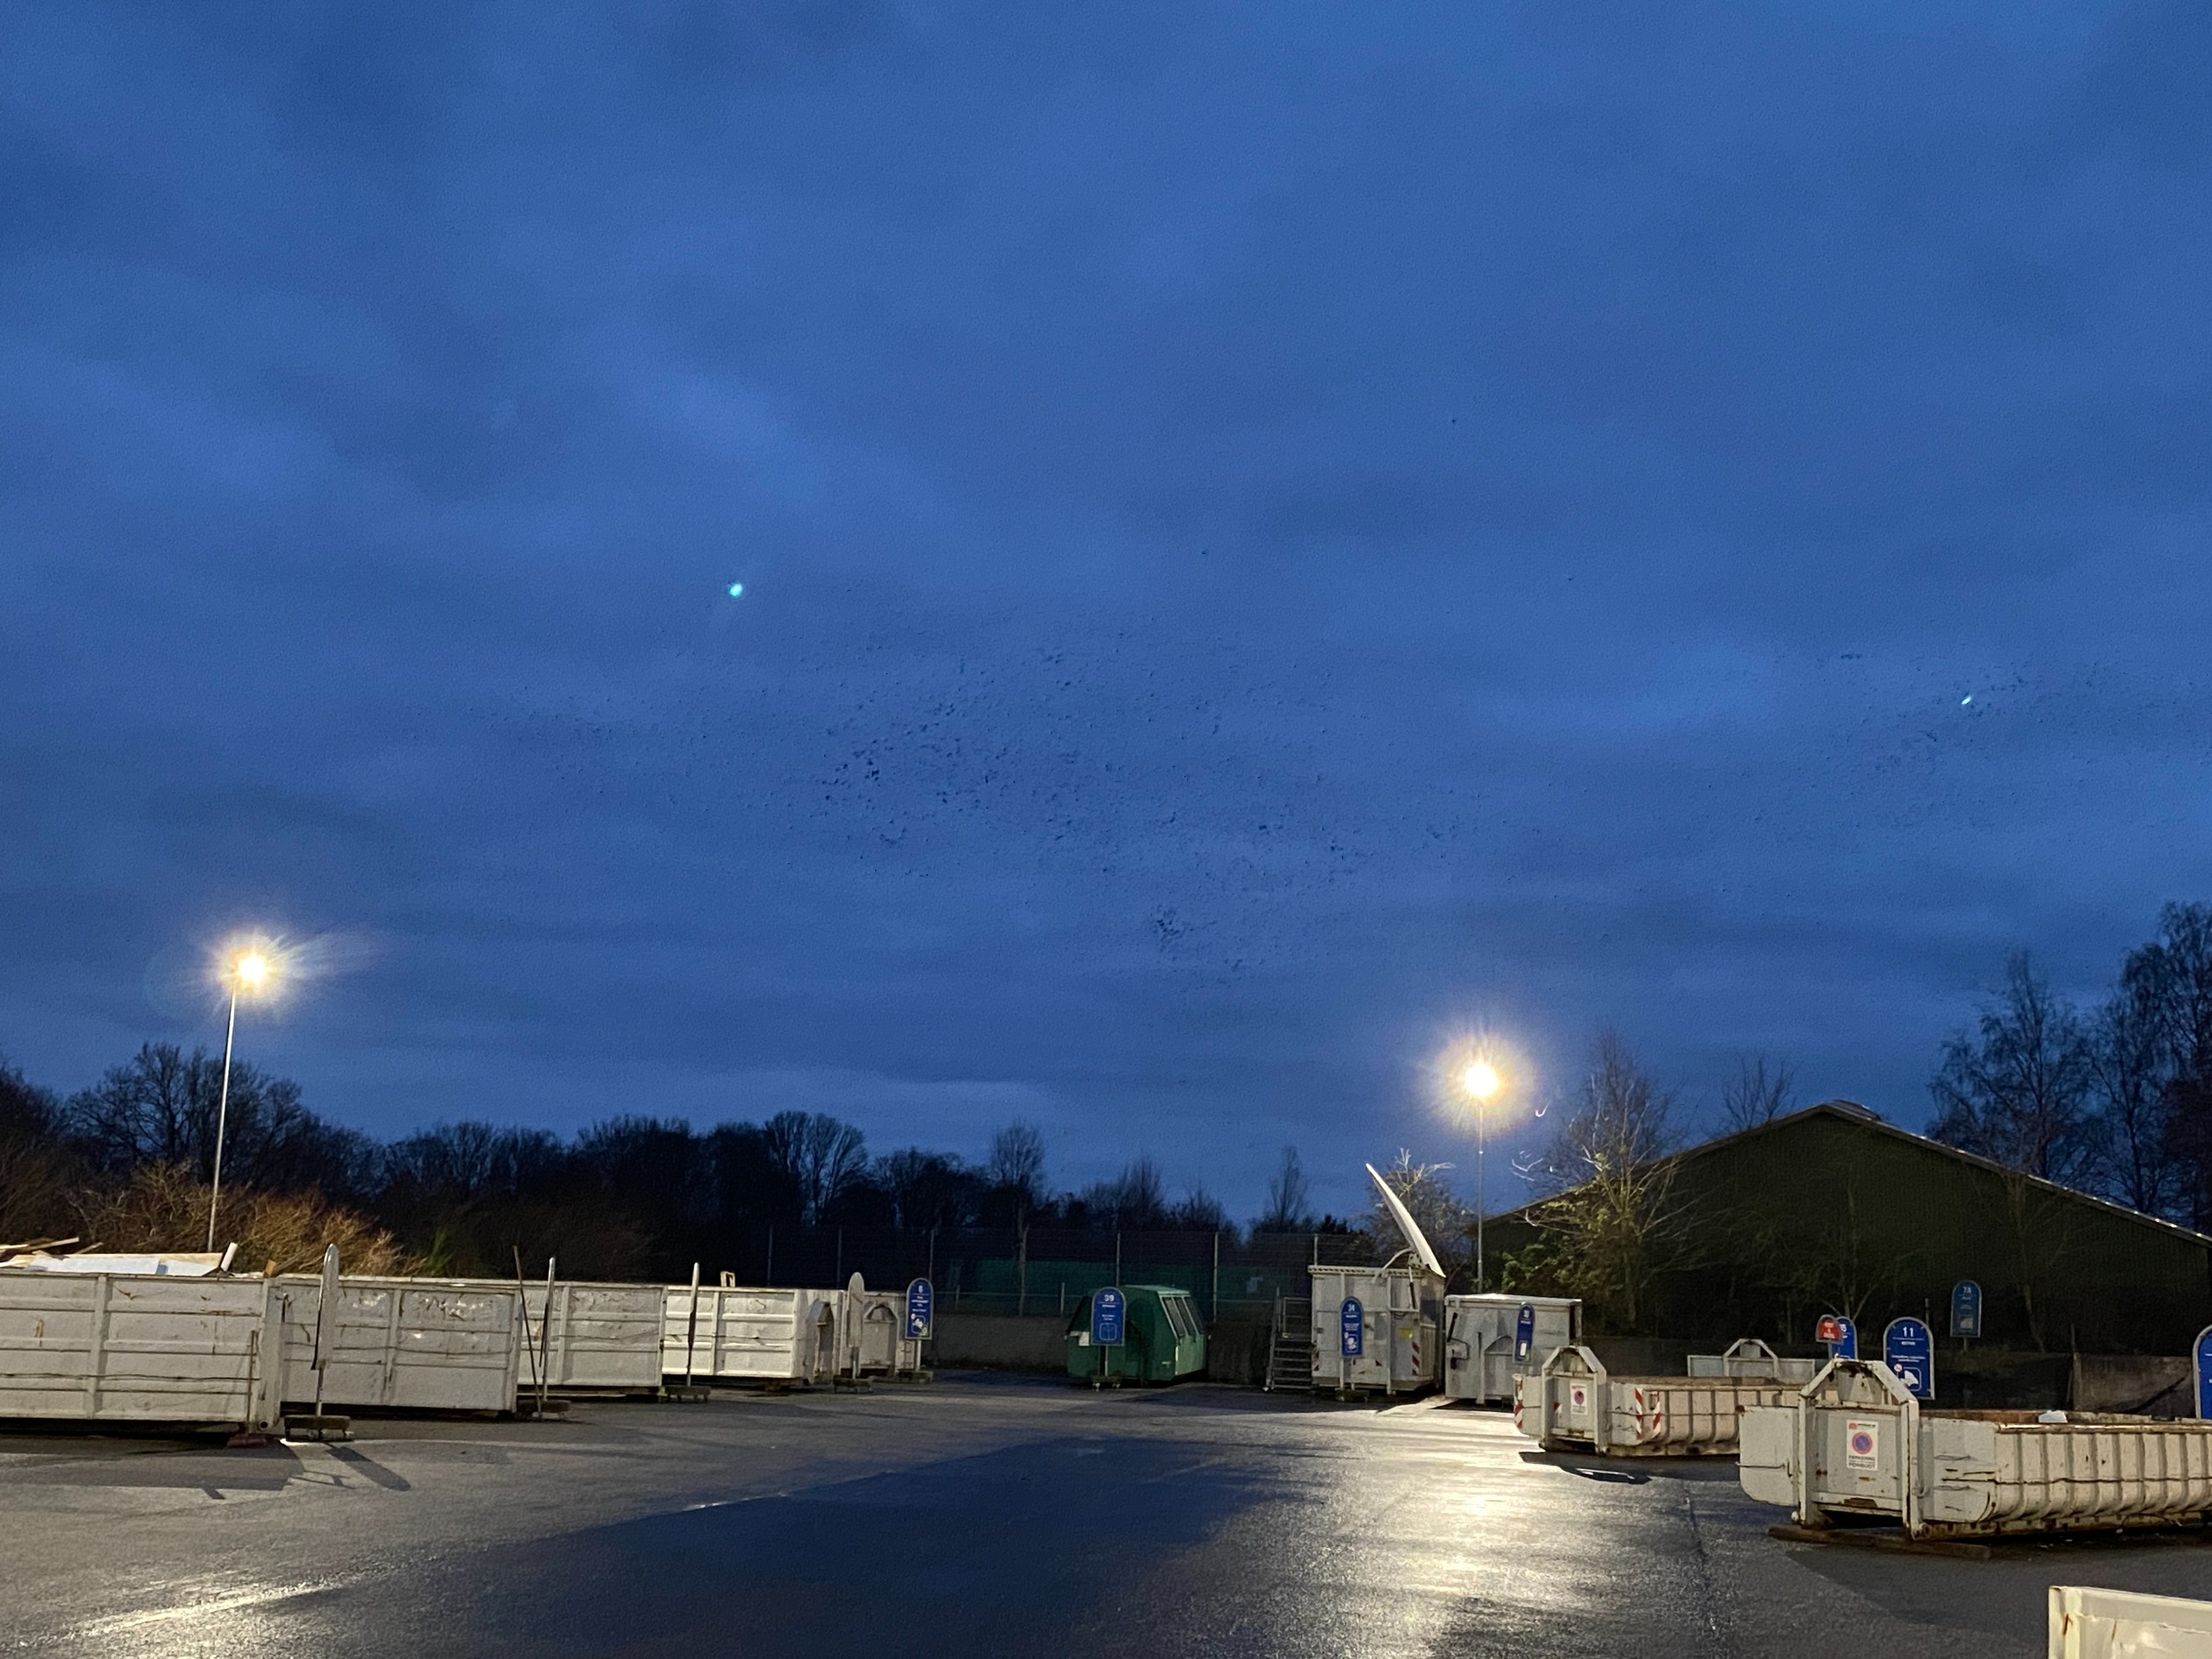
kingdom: Animalia
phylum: Chordata
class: Aves
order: Passeriformes
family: Corvidae
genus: Corvus
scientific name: Corvus frugilegus
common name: Råge
